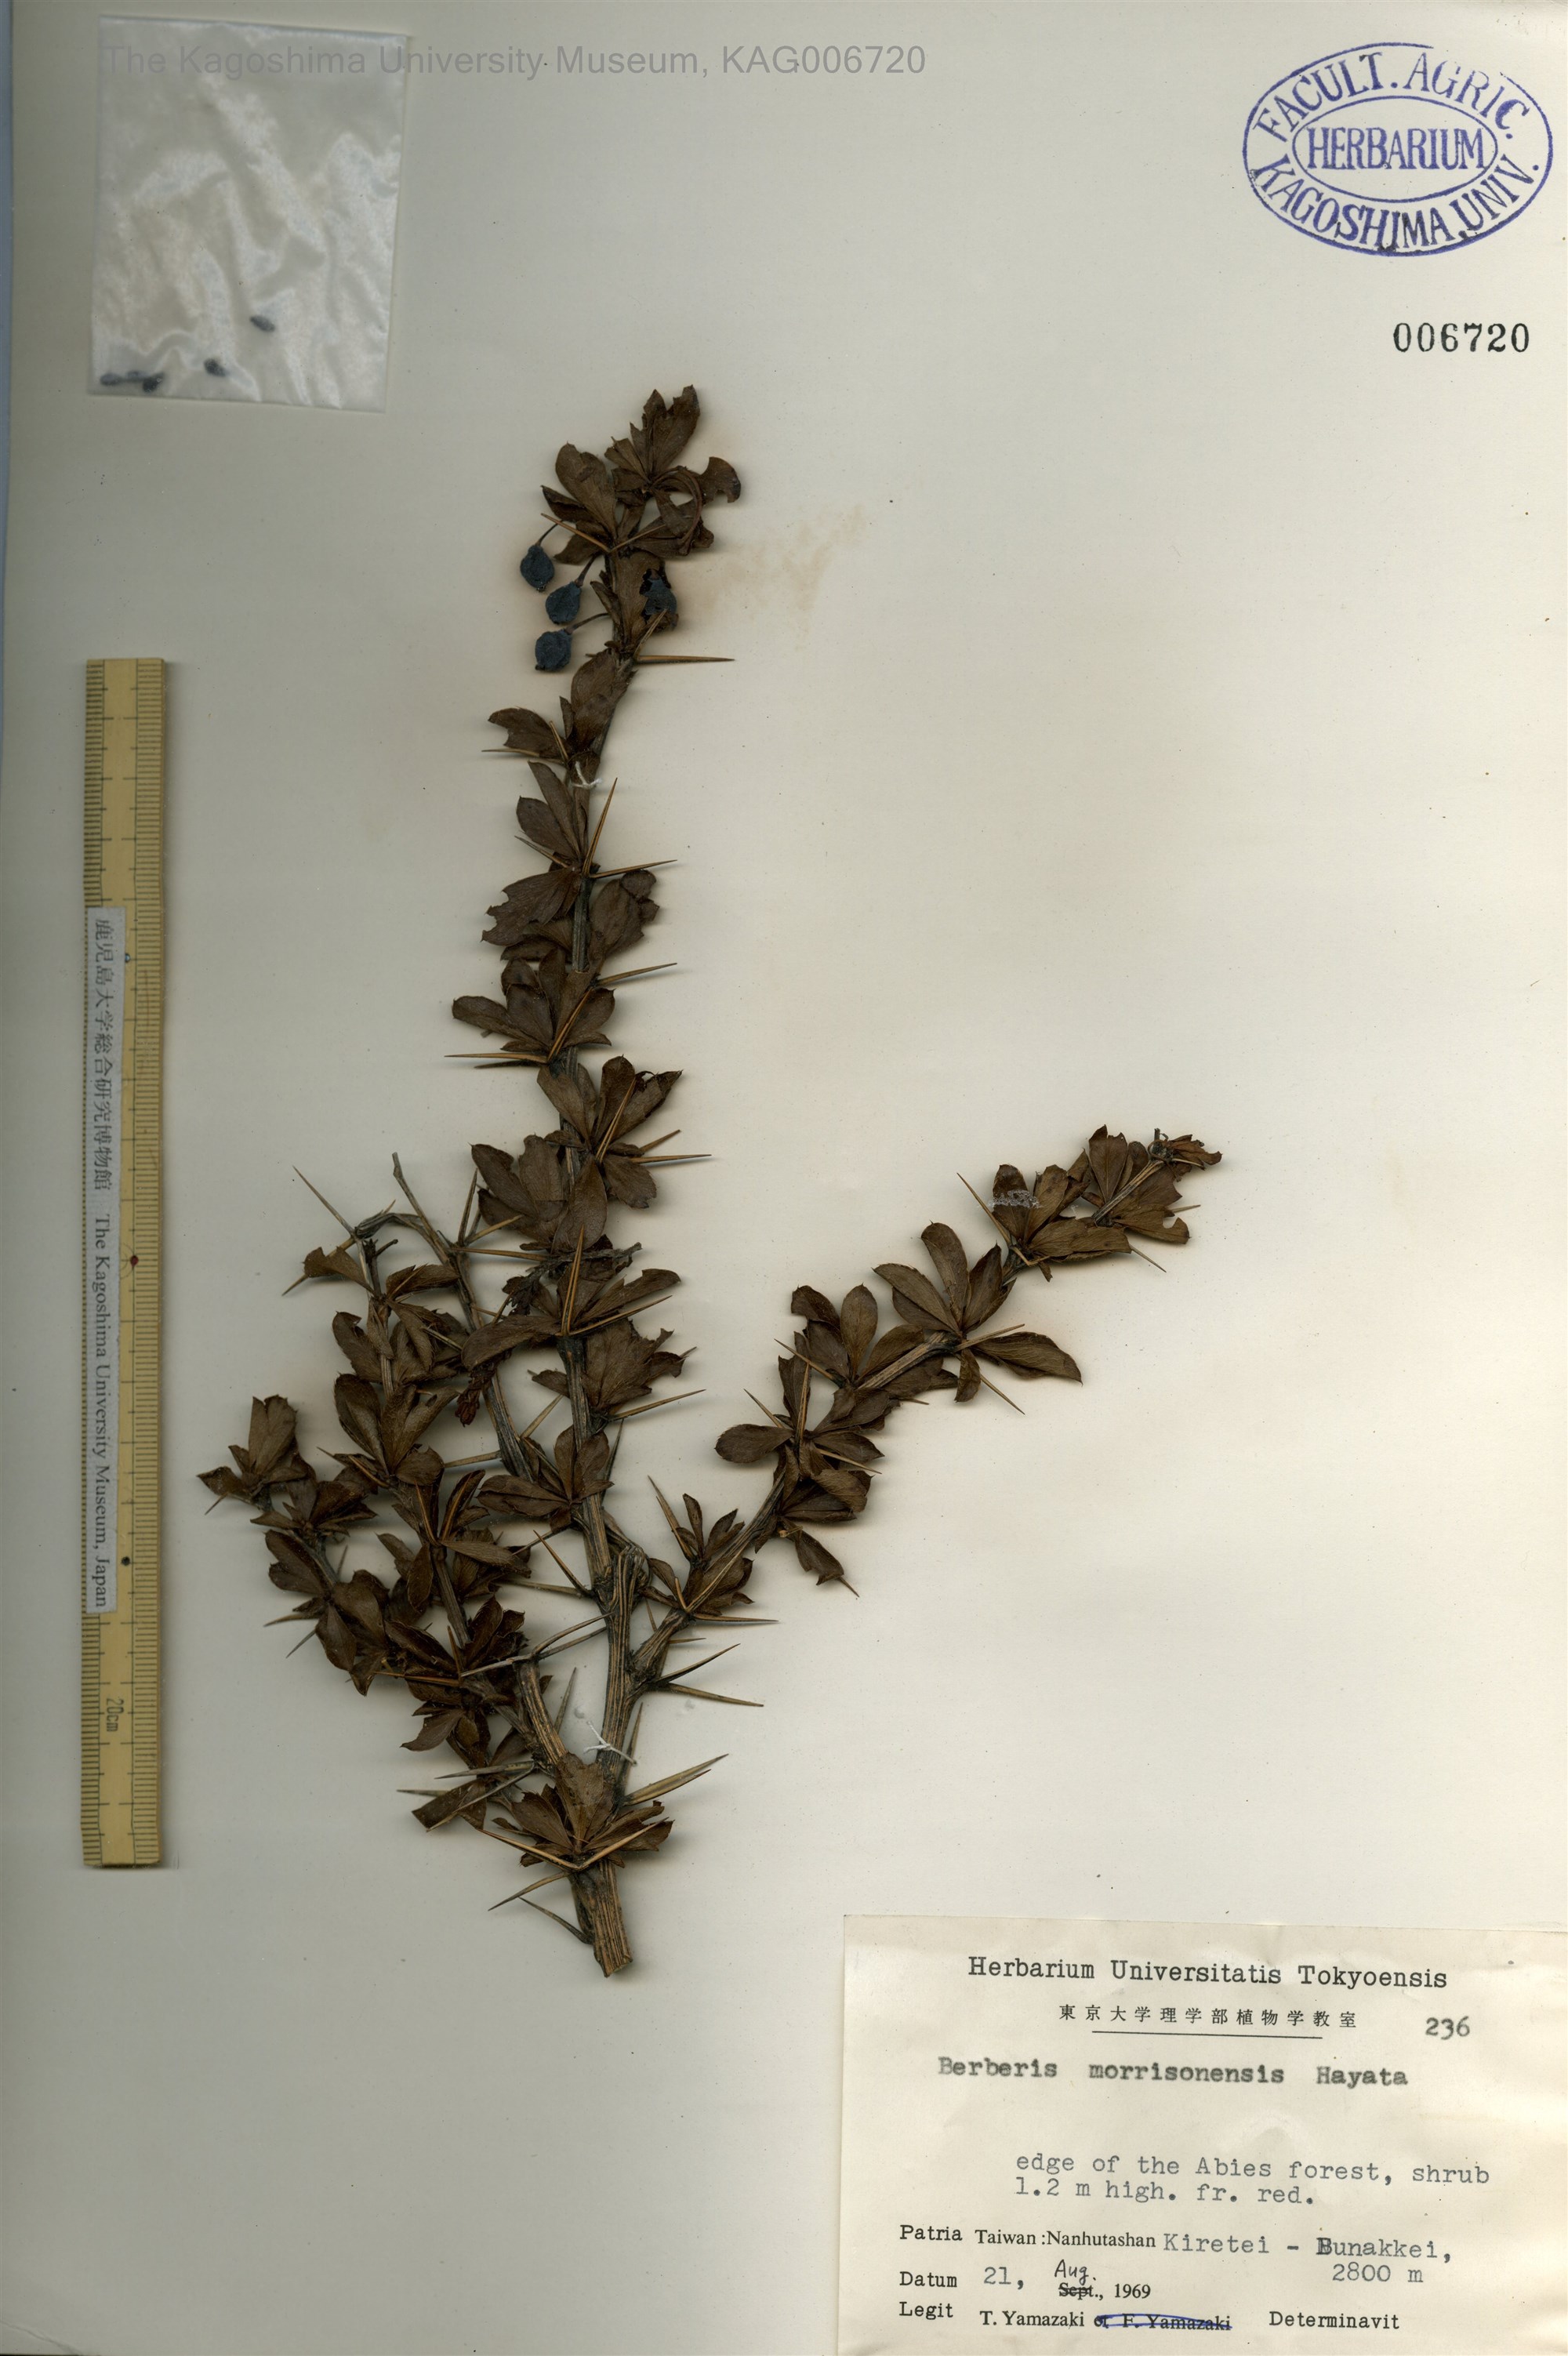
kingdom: Plantae
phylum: Tracheophyta
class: Magnoliopsida
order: Ranunculales
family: Berberidaceae
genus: Berberis
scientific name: Berberis morrisonensis
